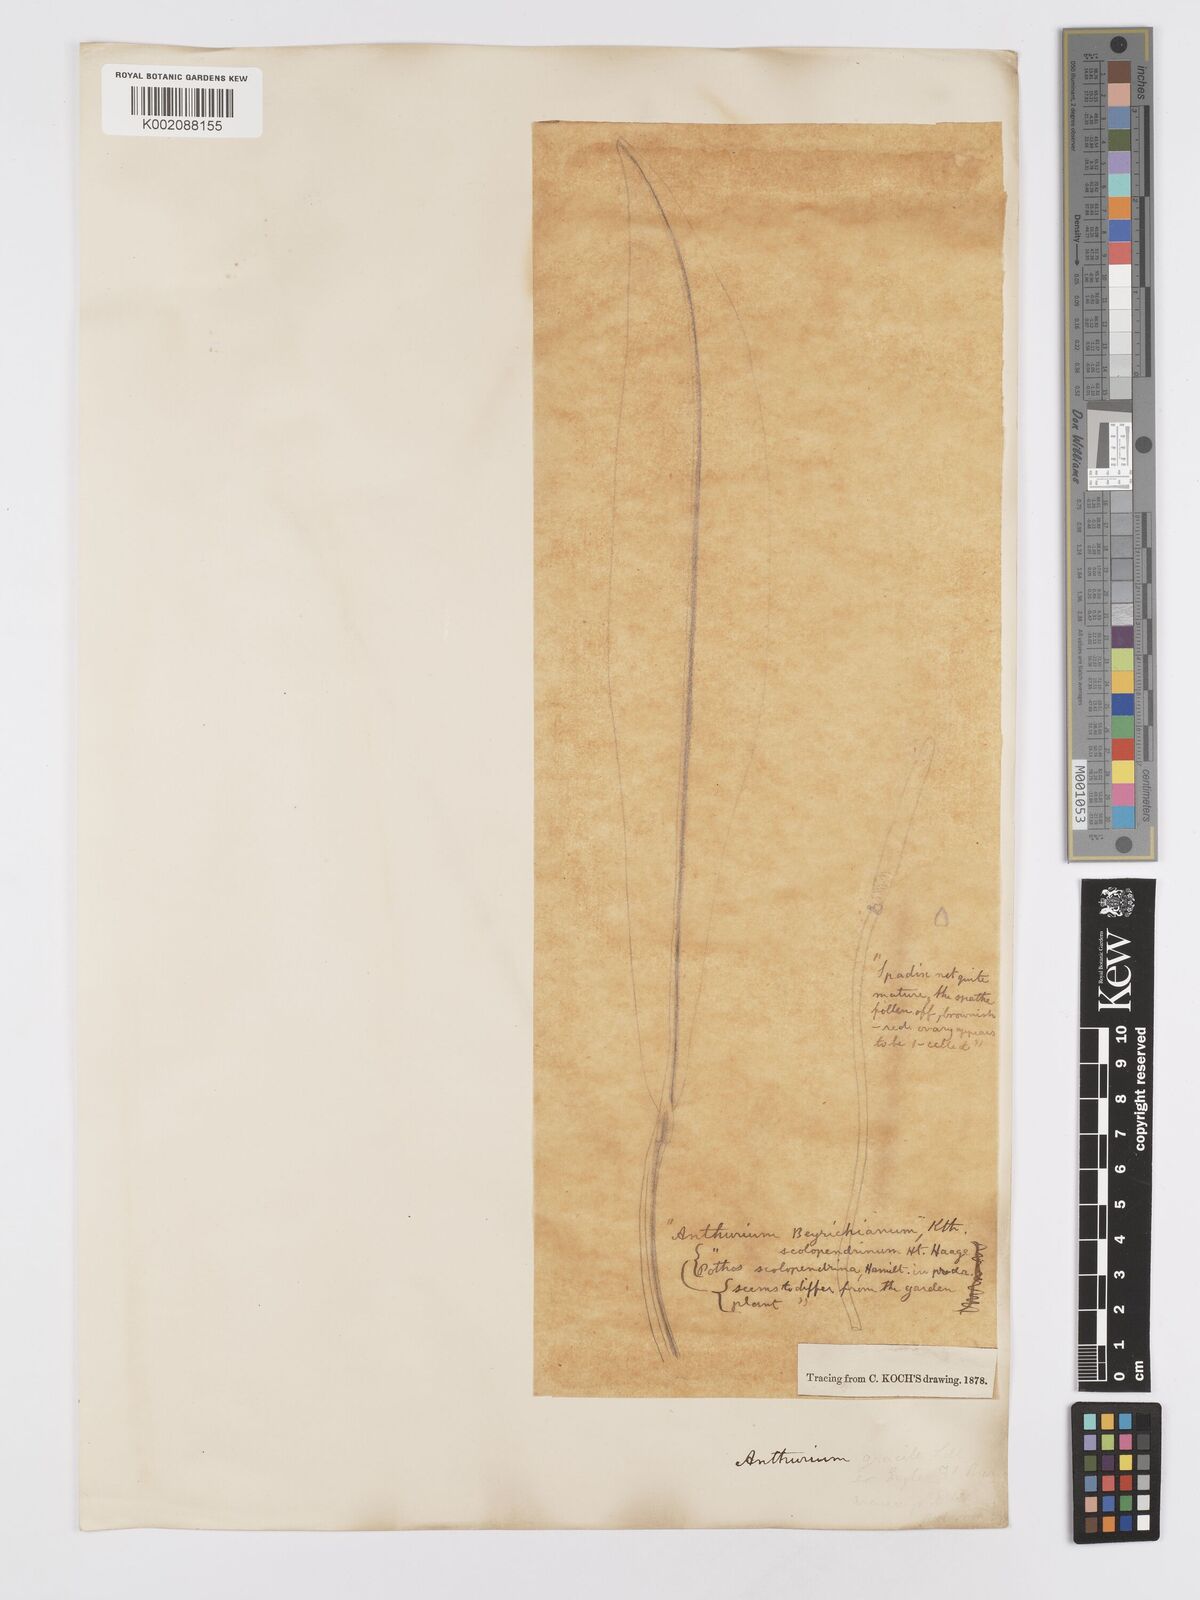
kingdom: Plantae
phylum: Tracheophyta
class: Liliopsida
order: Alismatales
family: Araceae
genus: Anthurium
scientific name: Anthurium
